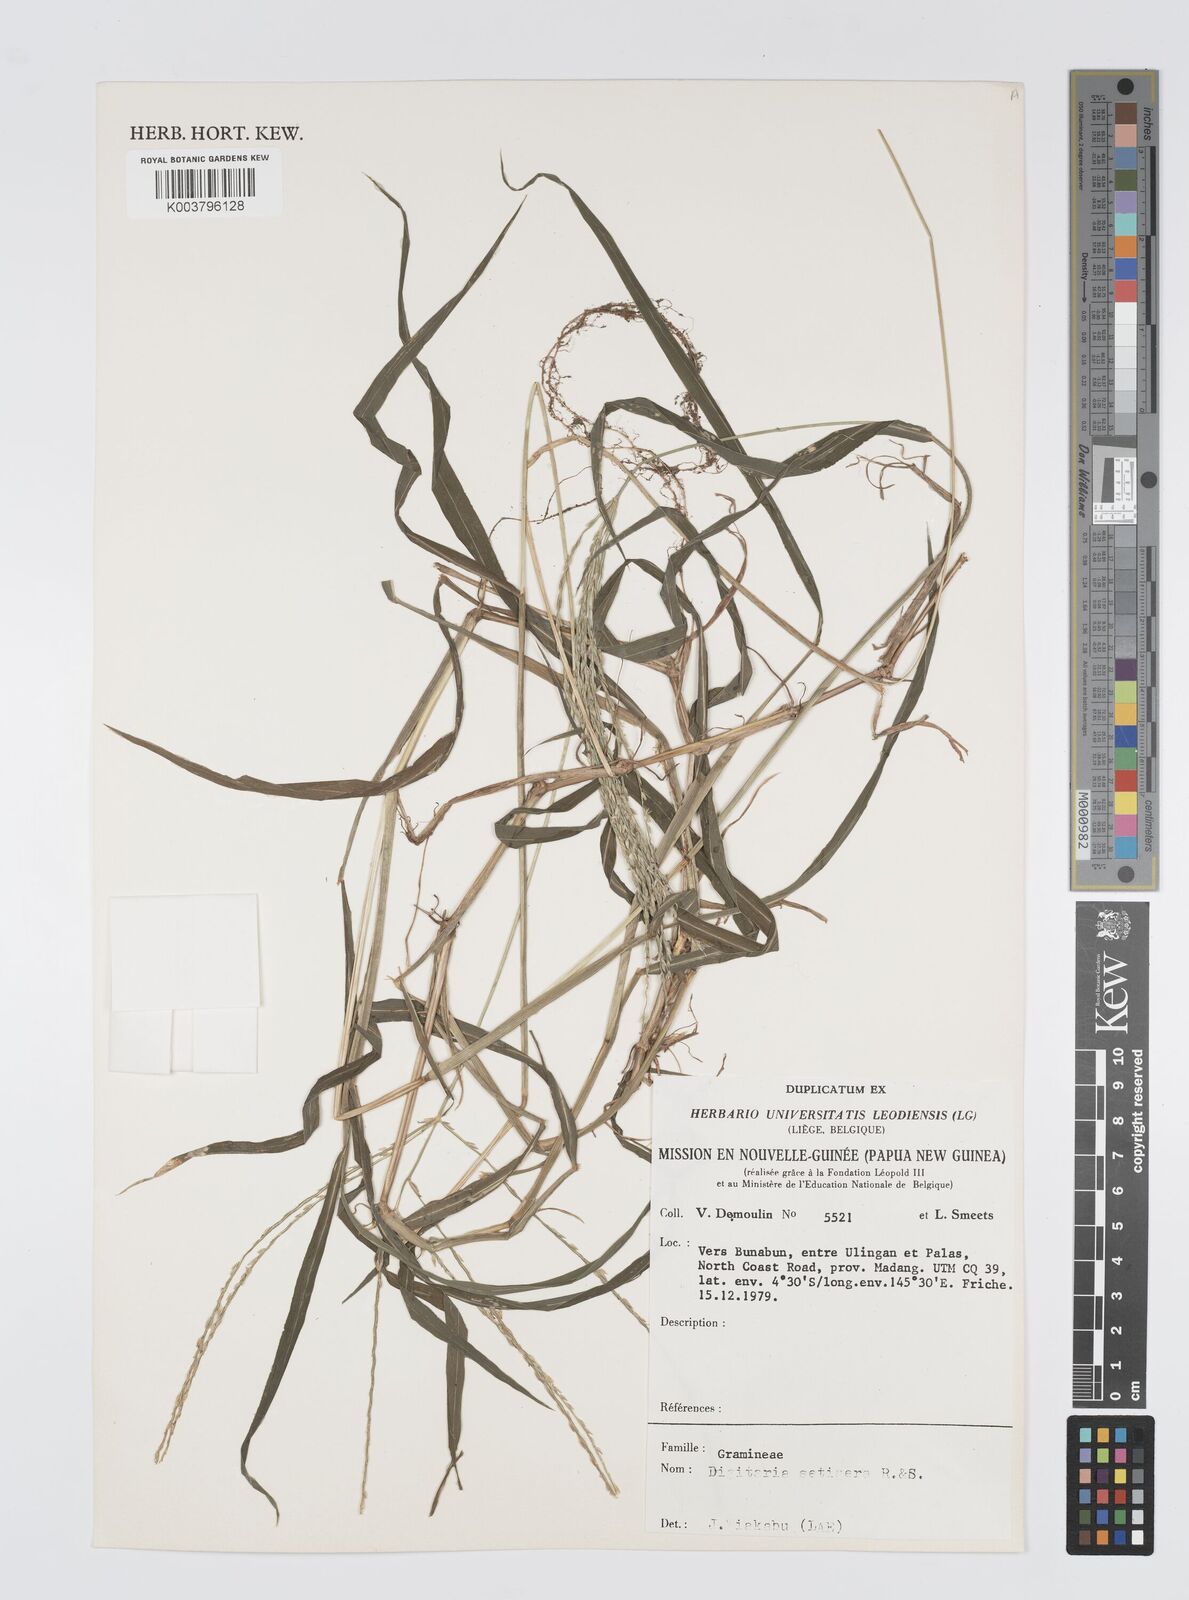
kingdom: Plantae
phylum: Tracheophyta
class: Liliopsida
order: Poales
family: Poaceae
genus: Digitaria
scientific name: Digitaria setigera
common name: East indian crabgrass
